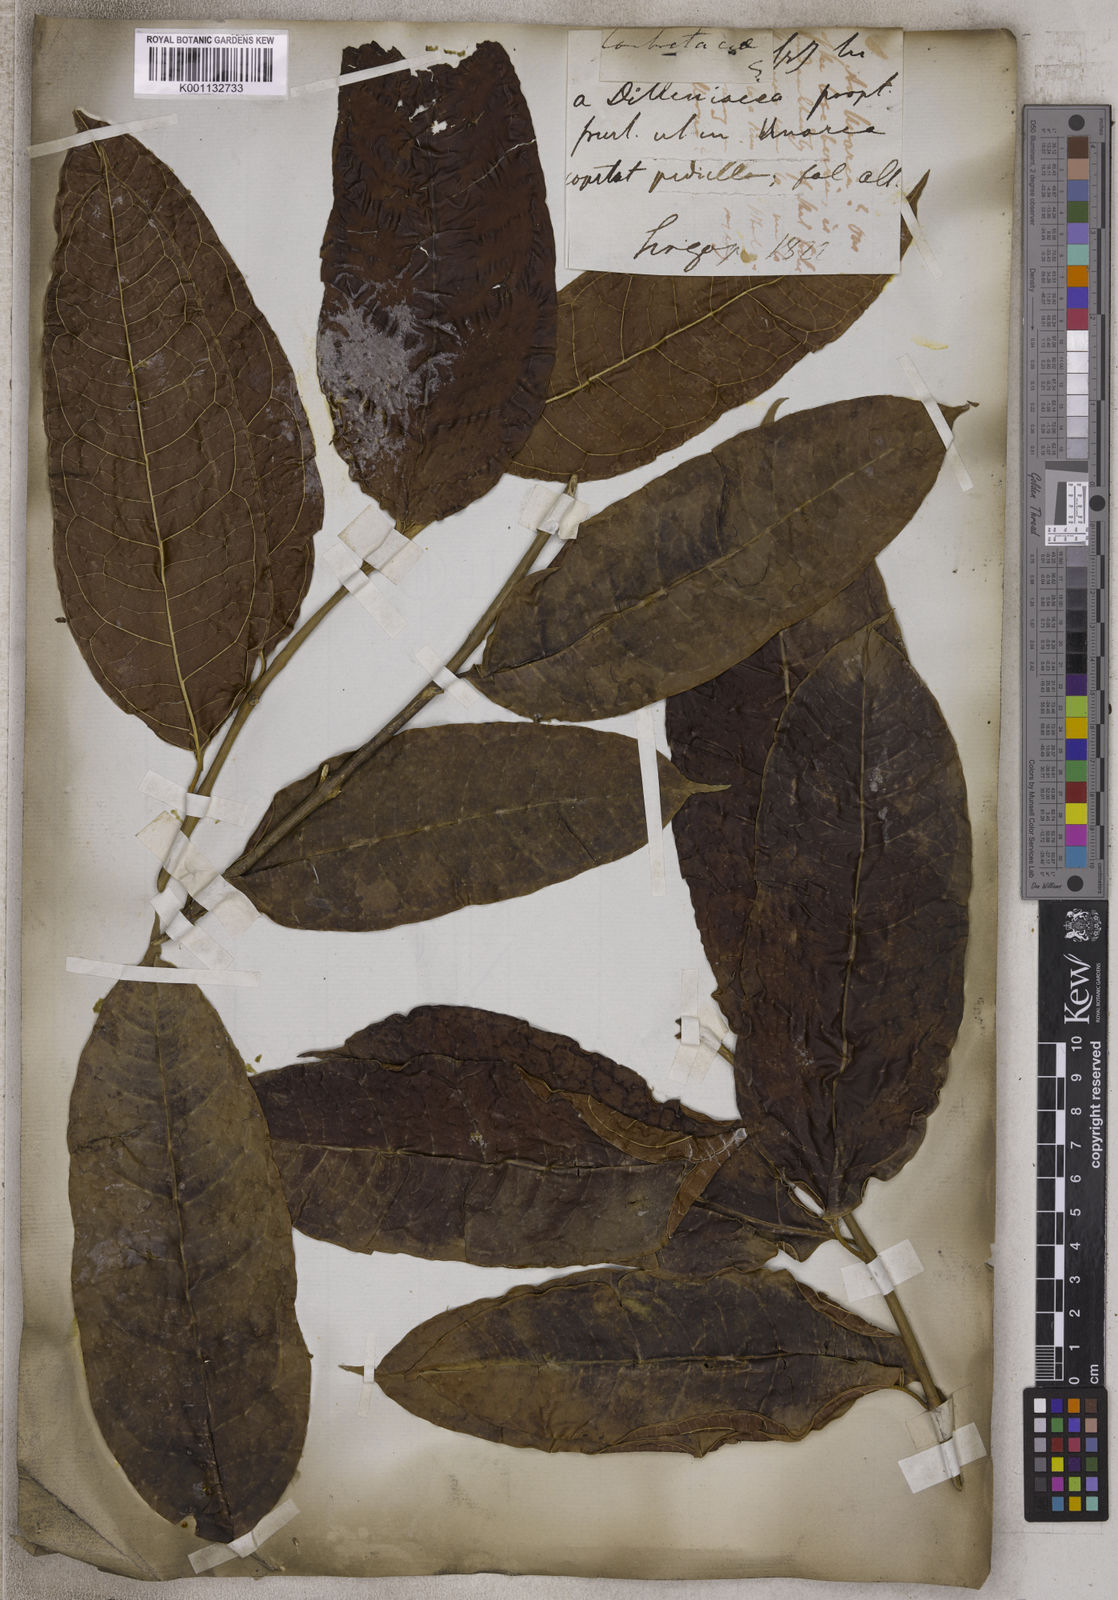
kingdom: Plantae
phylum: Tracheophyta
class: Magnoliopsida
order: Myrtales
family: Combretaceae
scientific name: Combretaceae
